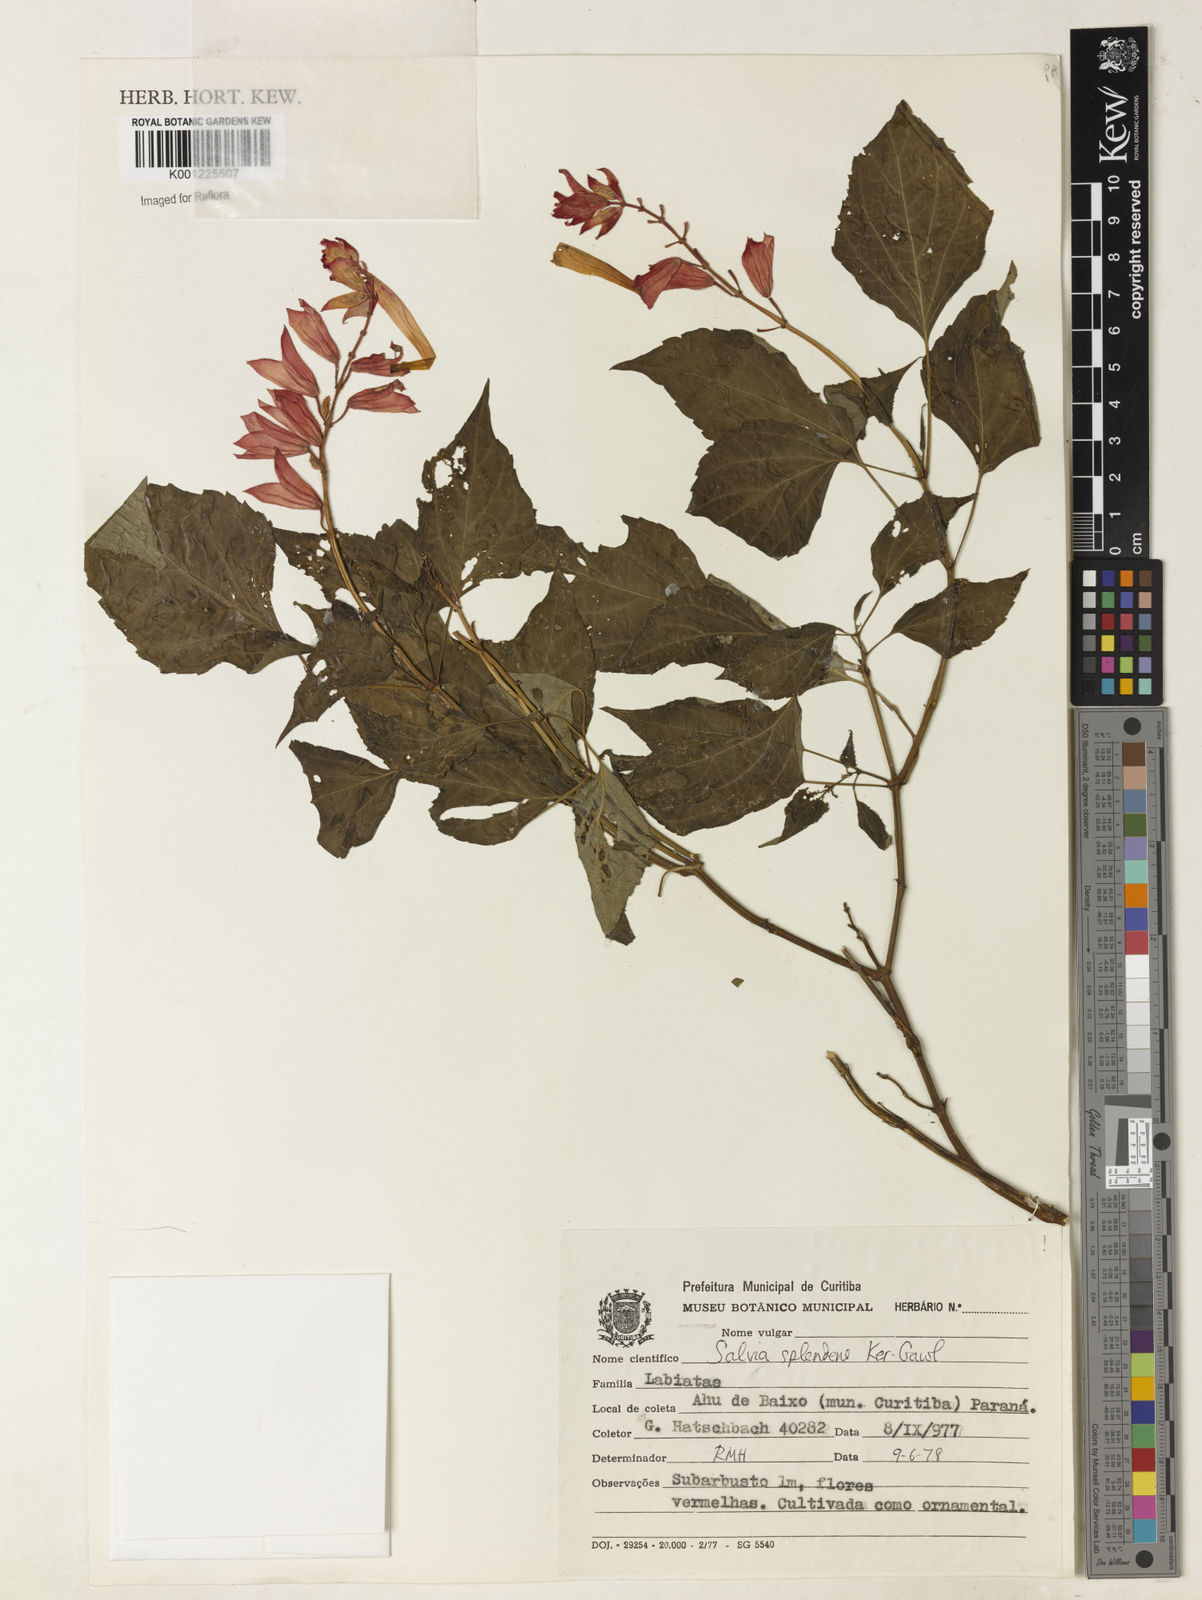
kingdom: Plantae
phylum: Tracheophyta
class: Magnoliopsida
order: Lamiales
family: Lamiaceae
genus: Salvia
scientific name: Salvia
